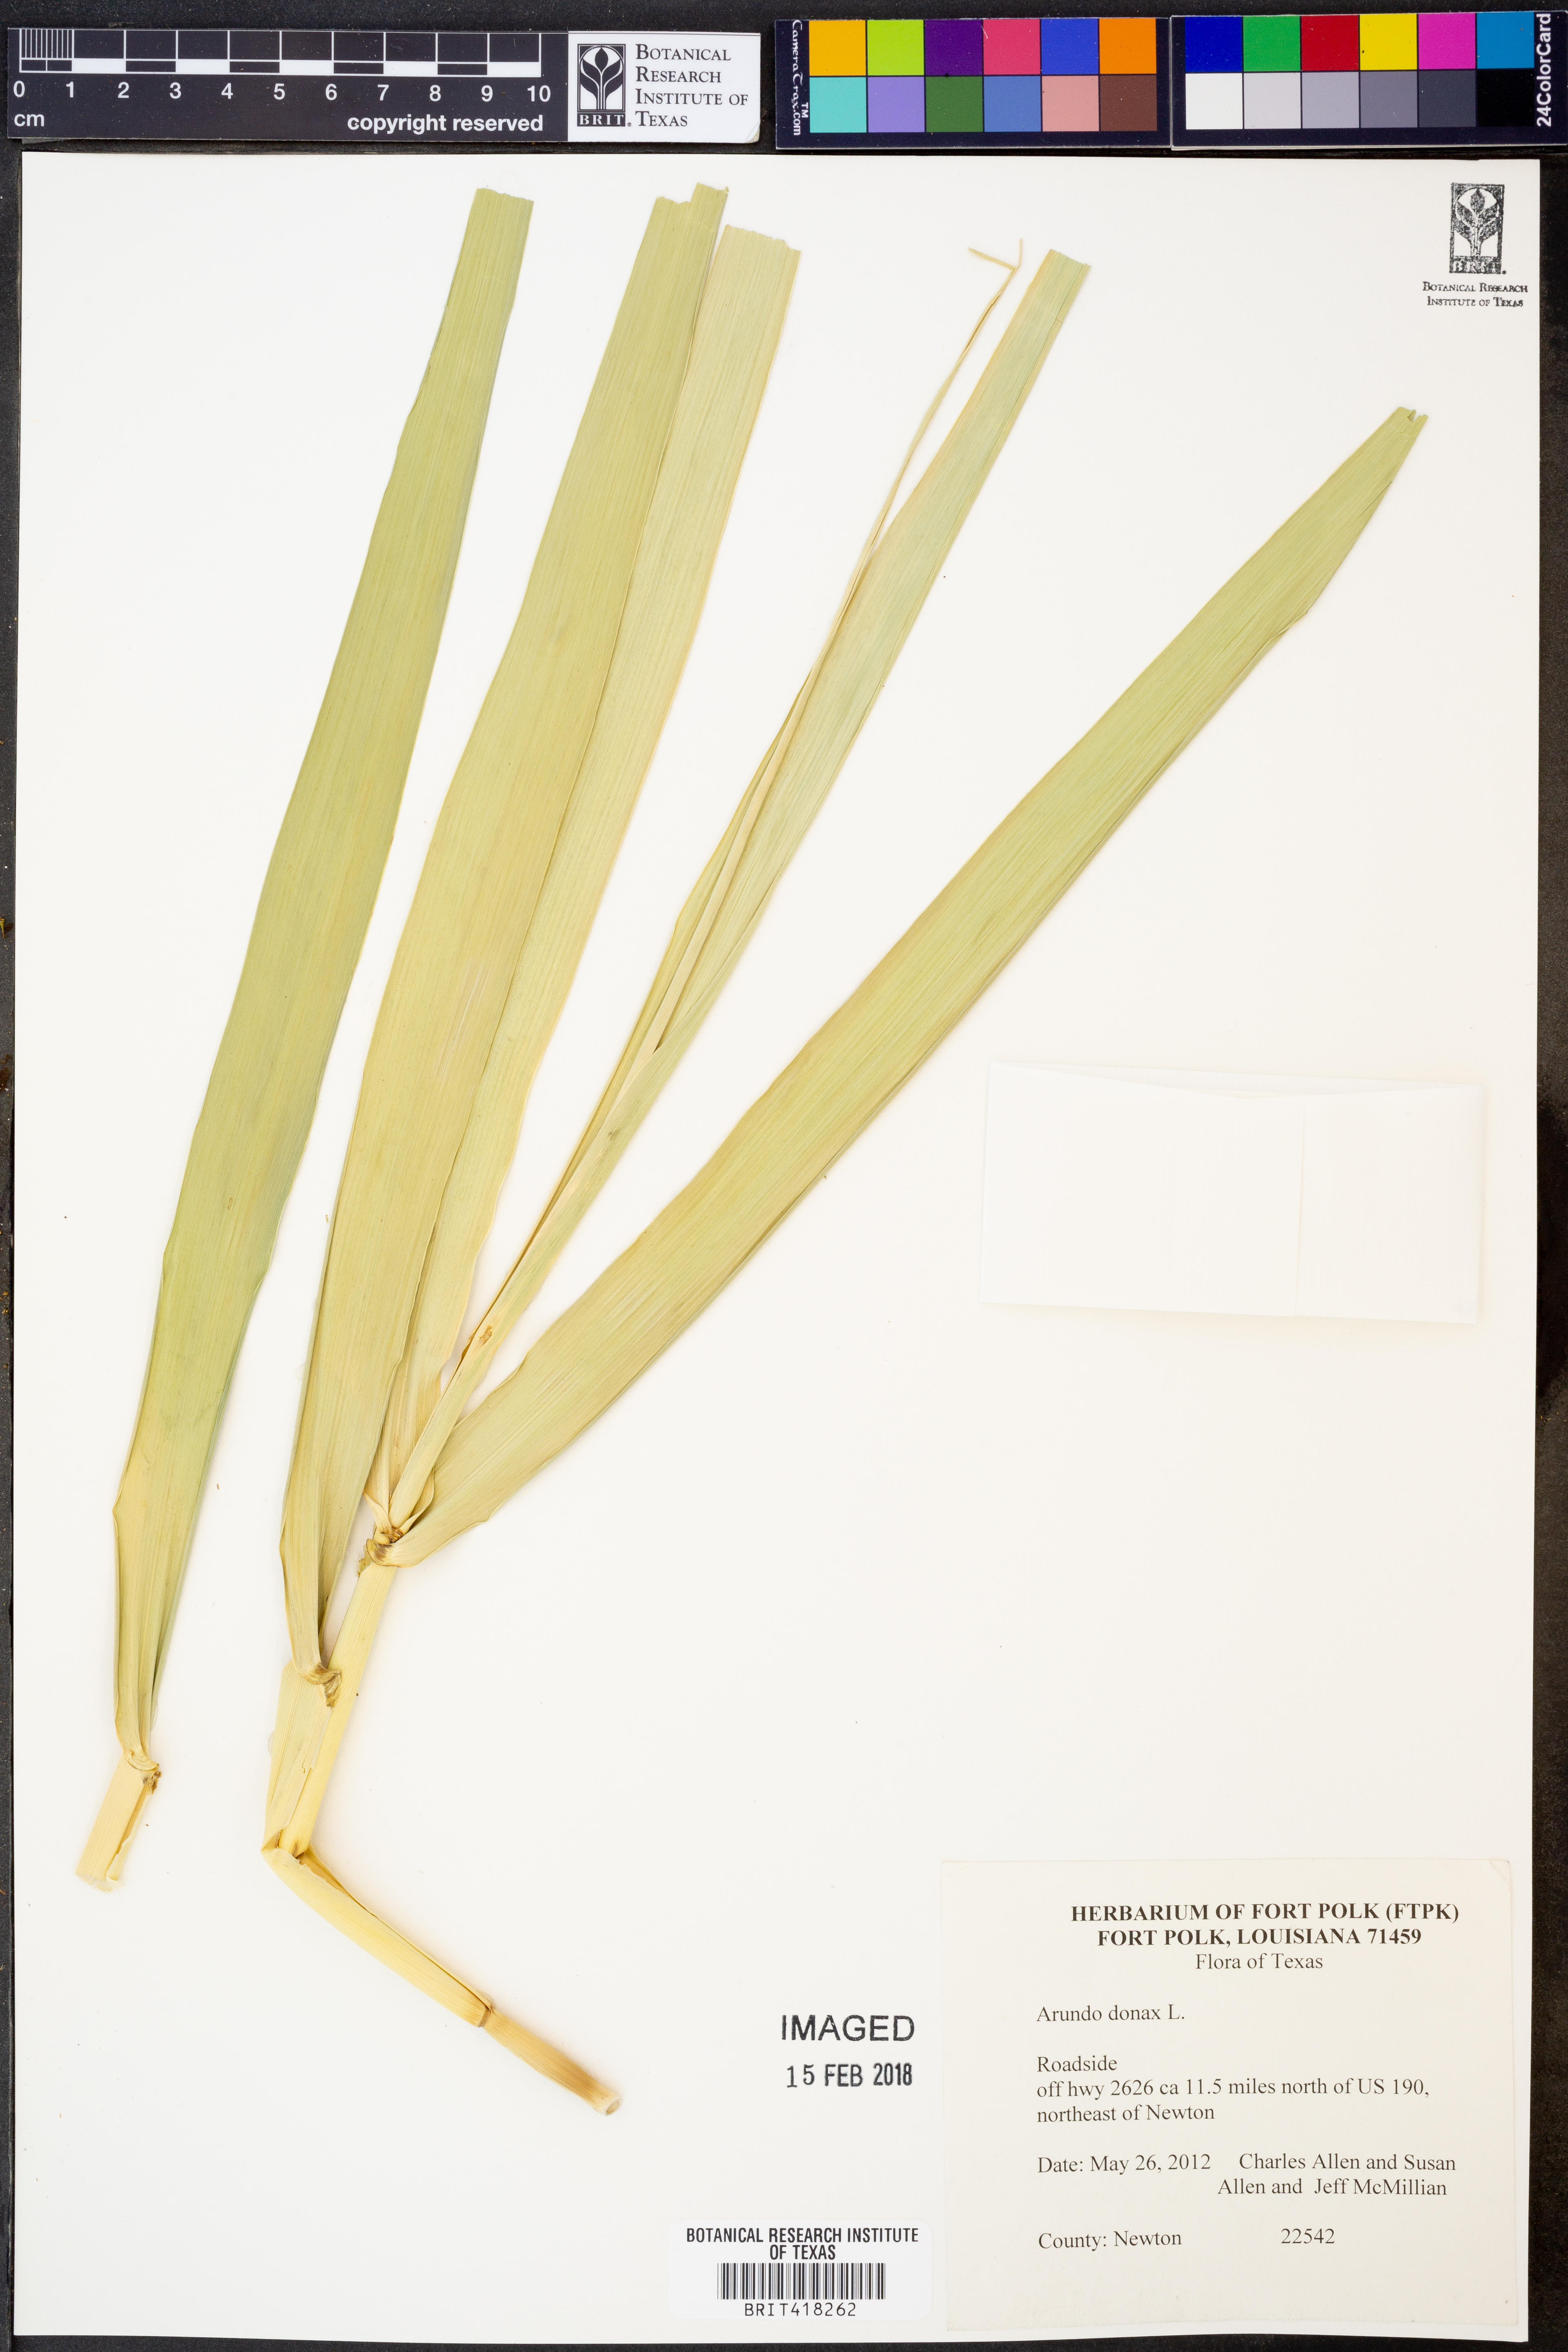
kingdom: Plantae
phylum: Tracheophyta
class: Liliopsida
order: Poales
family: Poaceae
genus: Arundo
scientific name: Arundo donax
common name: Giant reed
